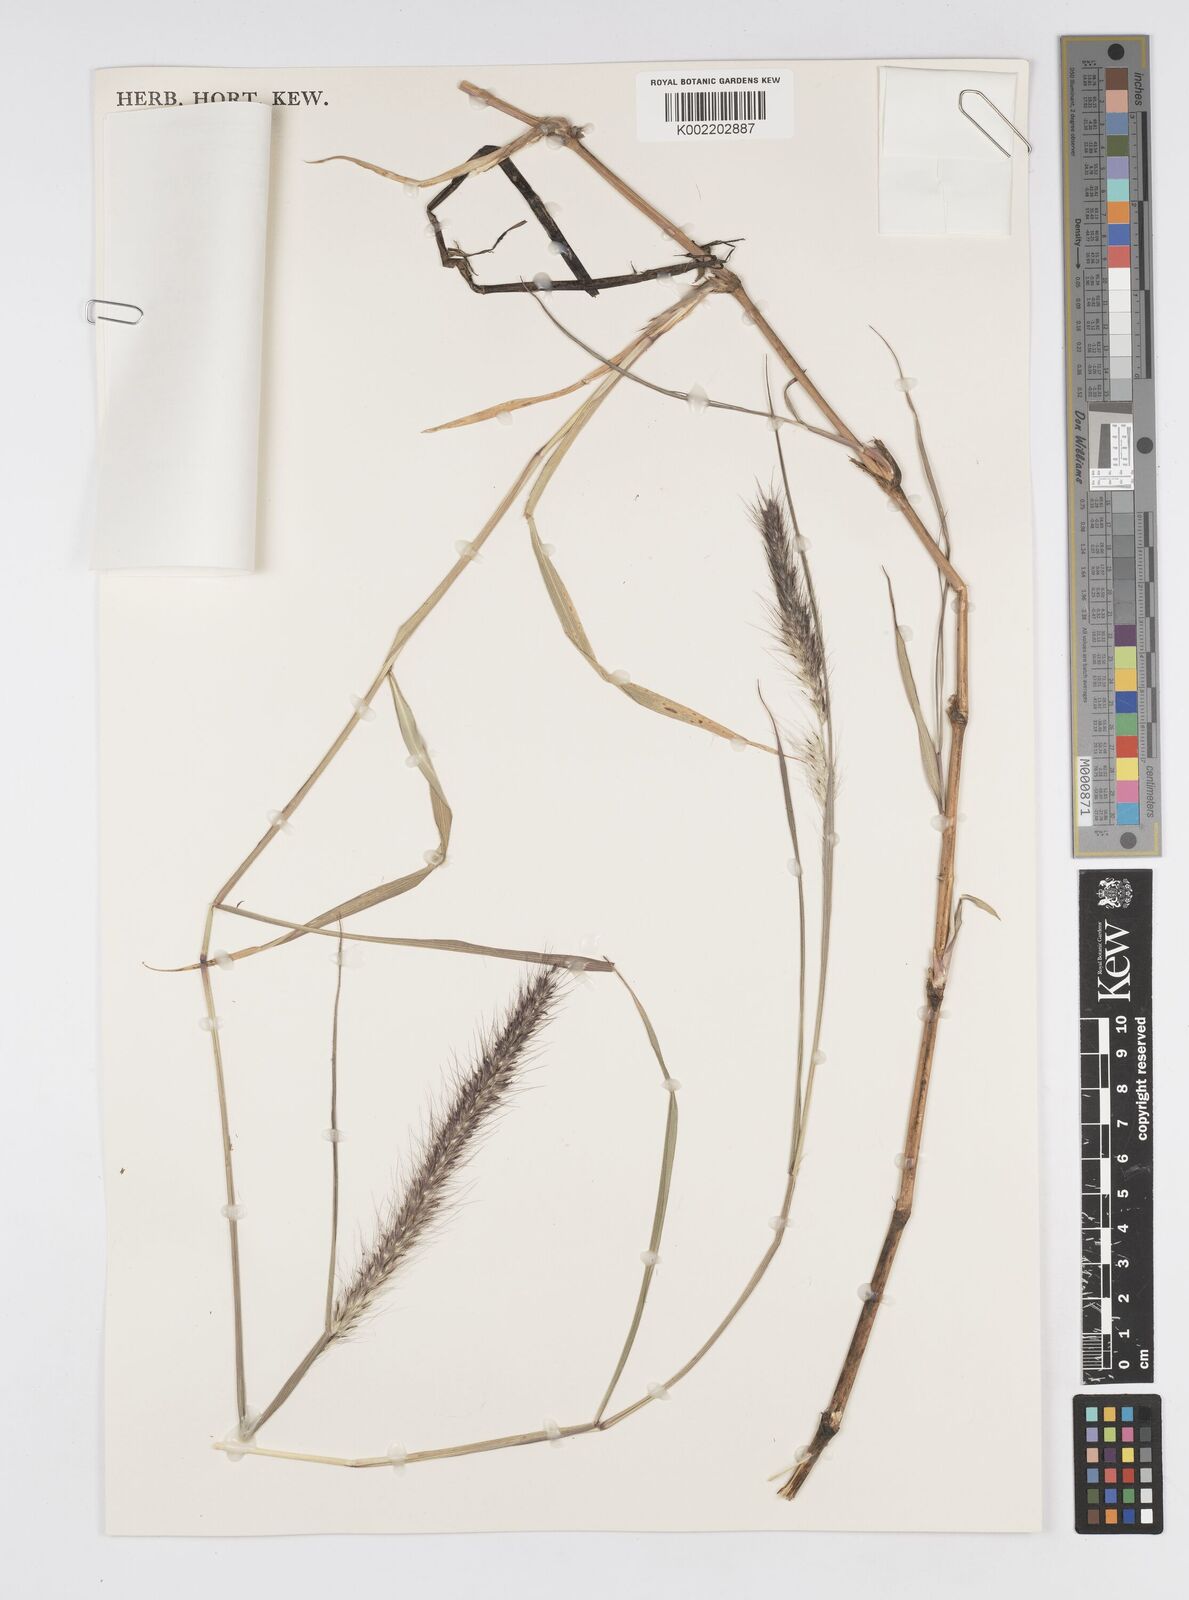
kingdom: Plantae
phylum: Tracheophyta
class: Liliopsida
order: Poales
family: Poaceae
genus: Cenchrus
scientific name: Cenchrus caudatus
